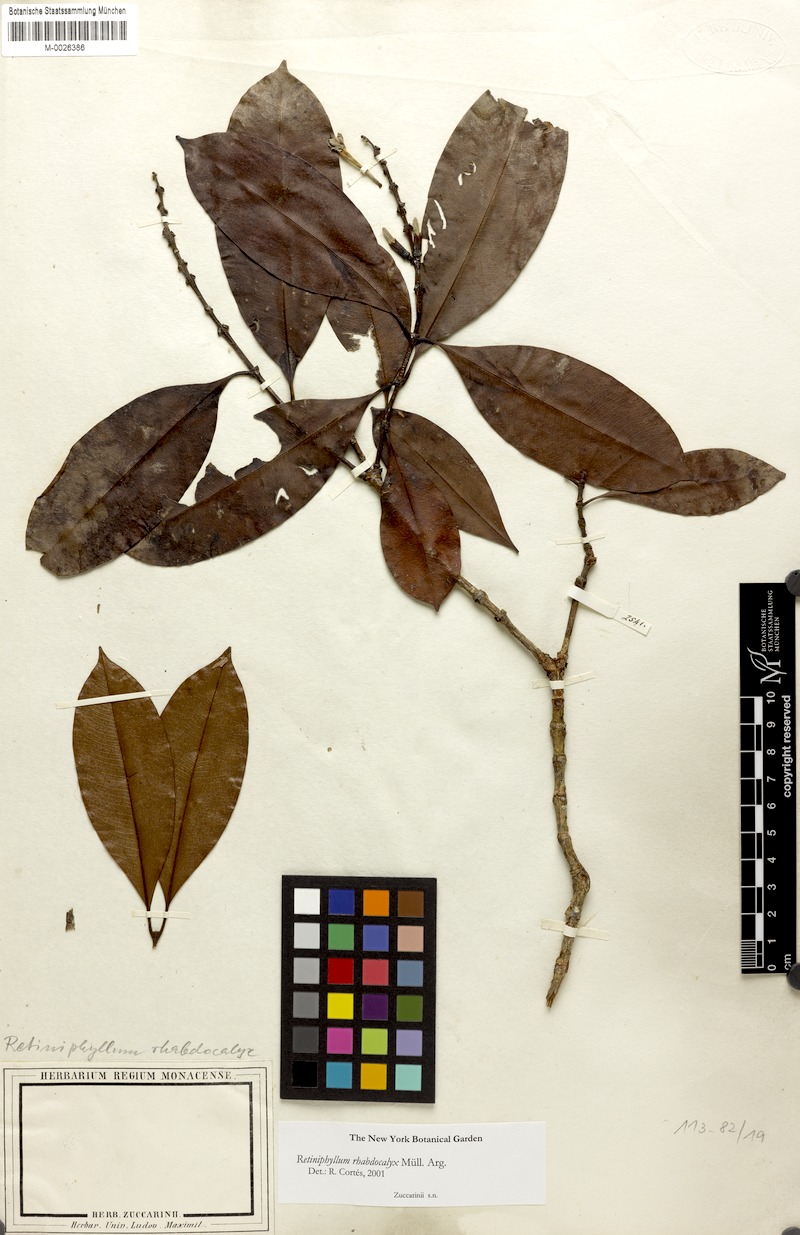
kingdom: Plantae
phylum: Tracheophyta
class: Magnoliopsida
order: Gentianales
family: Rubiaceae
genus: Retiniphyllum
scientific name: Retiniphyllum speciosum
